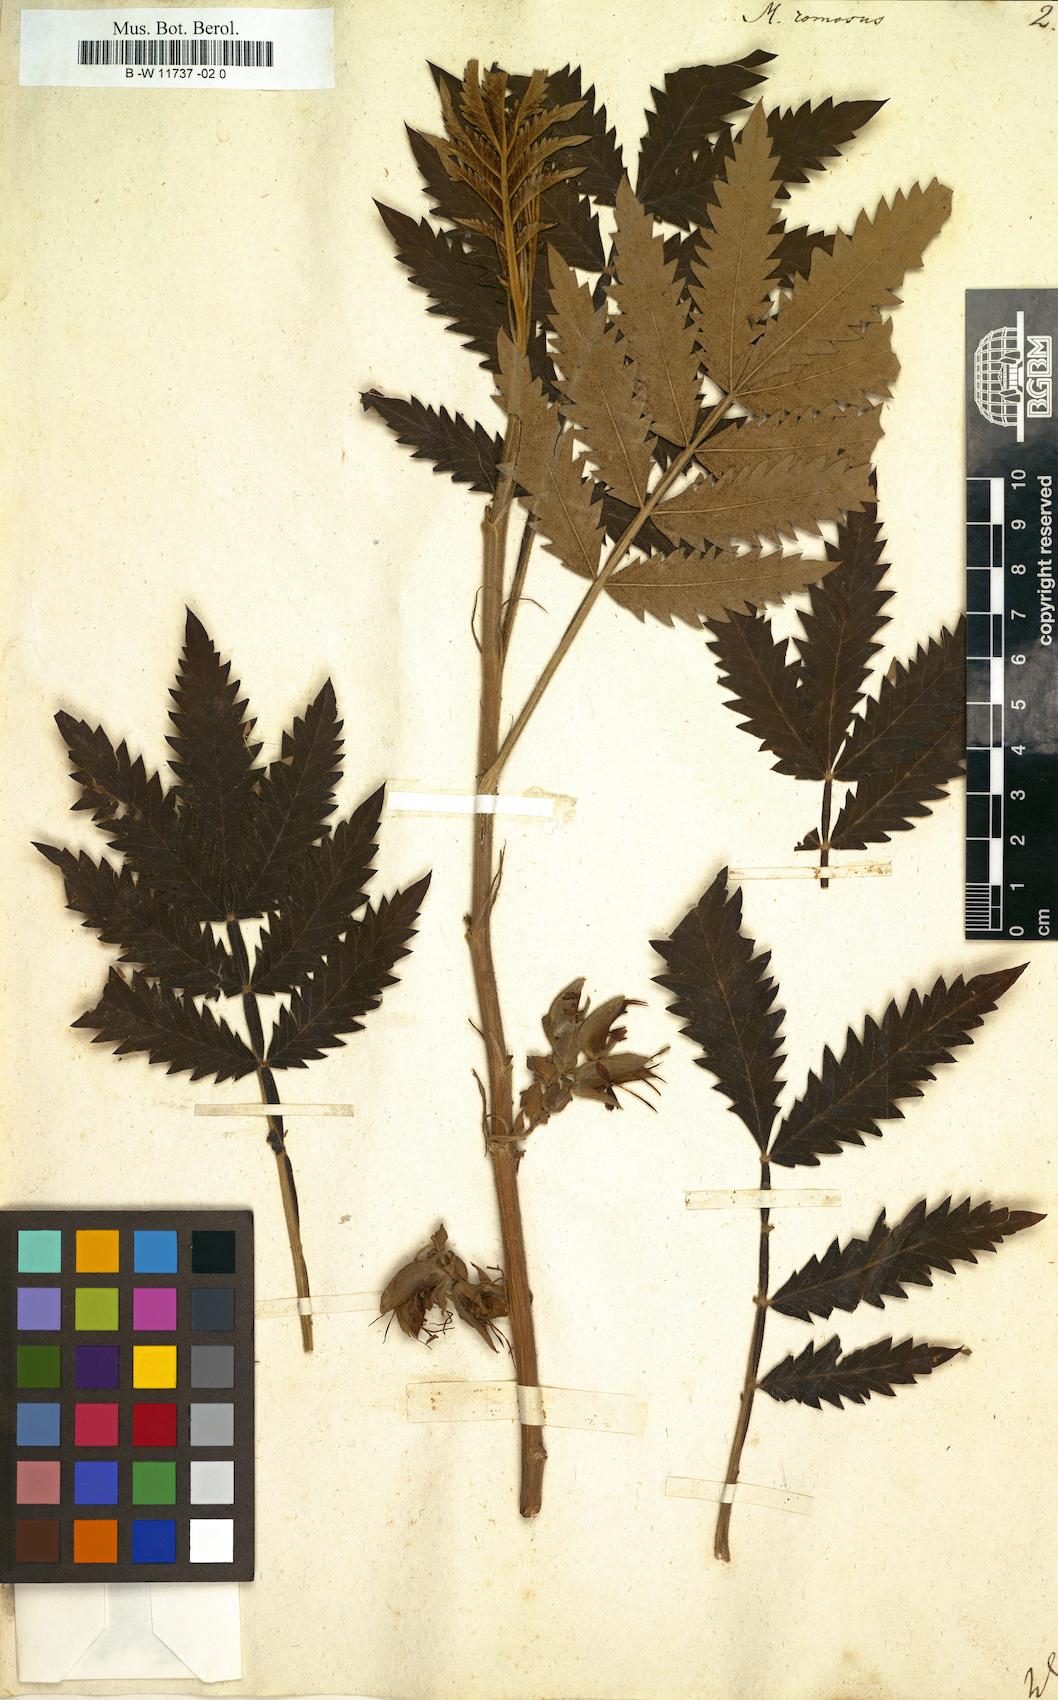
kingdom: Plantae
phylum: Tracheophyta
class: Magnoliopsida
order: Geraniales
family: Melianthaceae
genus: Melianthus
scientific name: Melianthus comosus
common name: Touch-me-not
